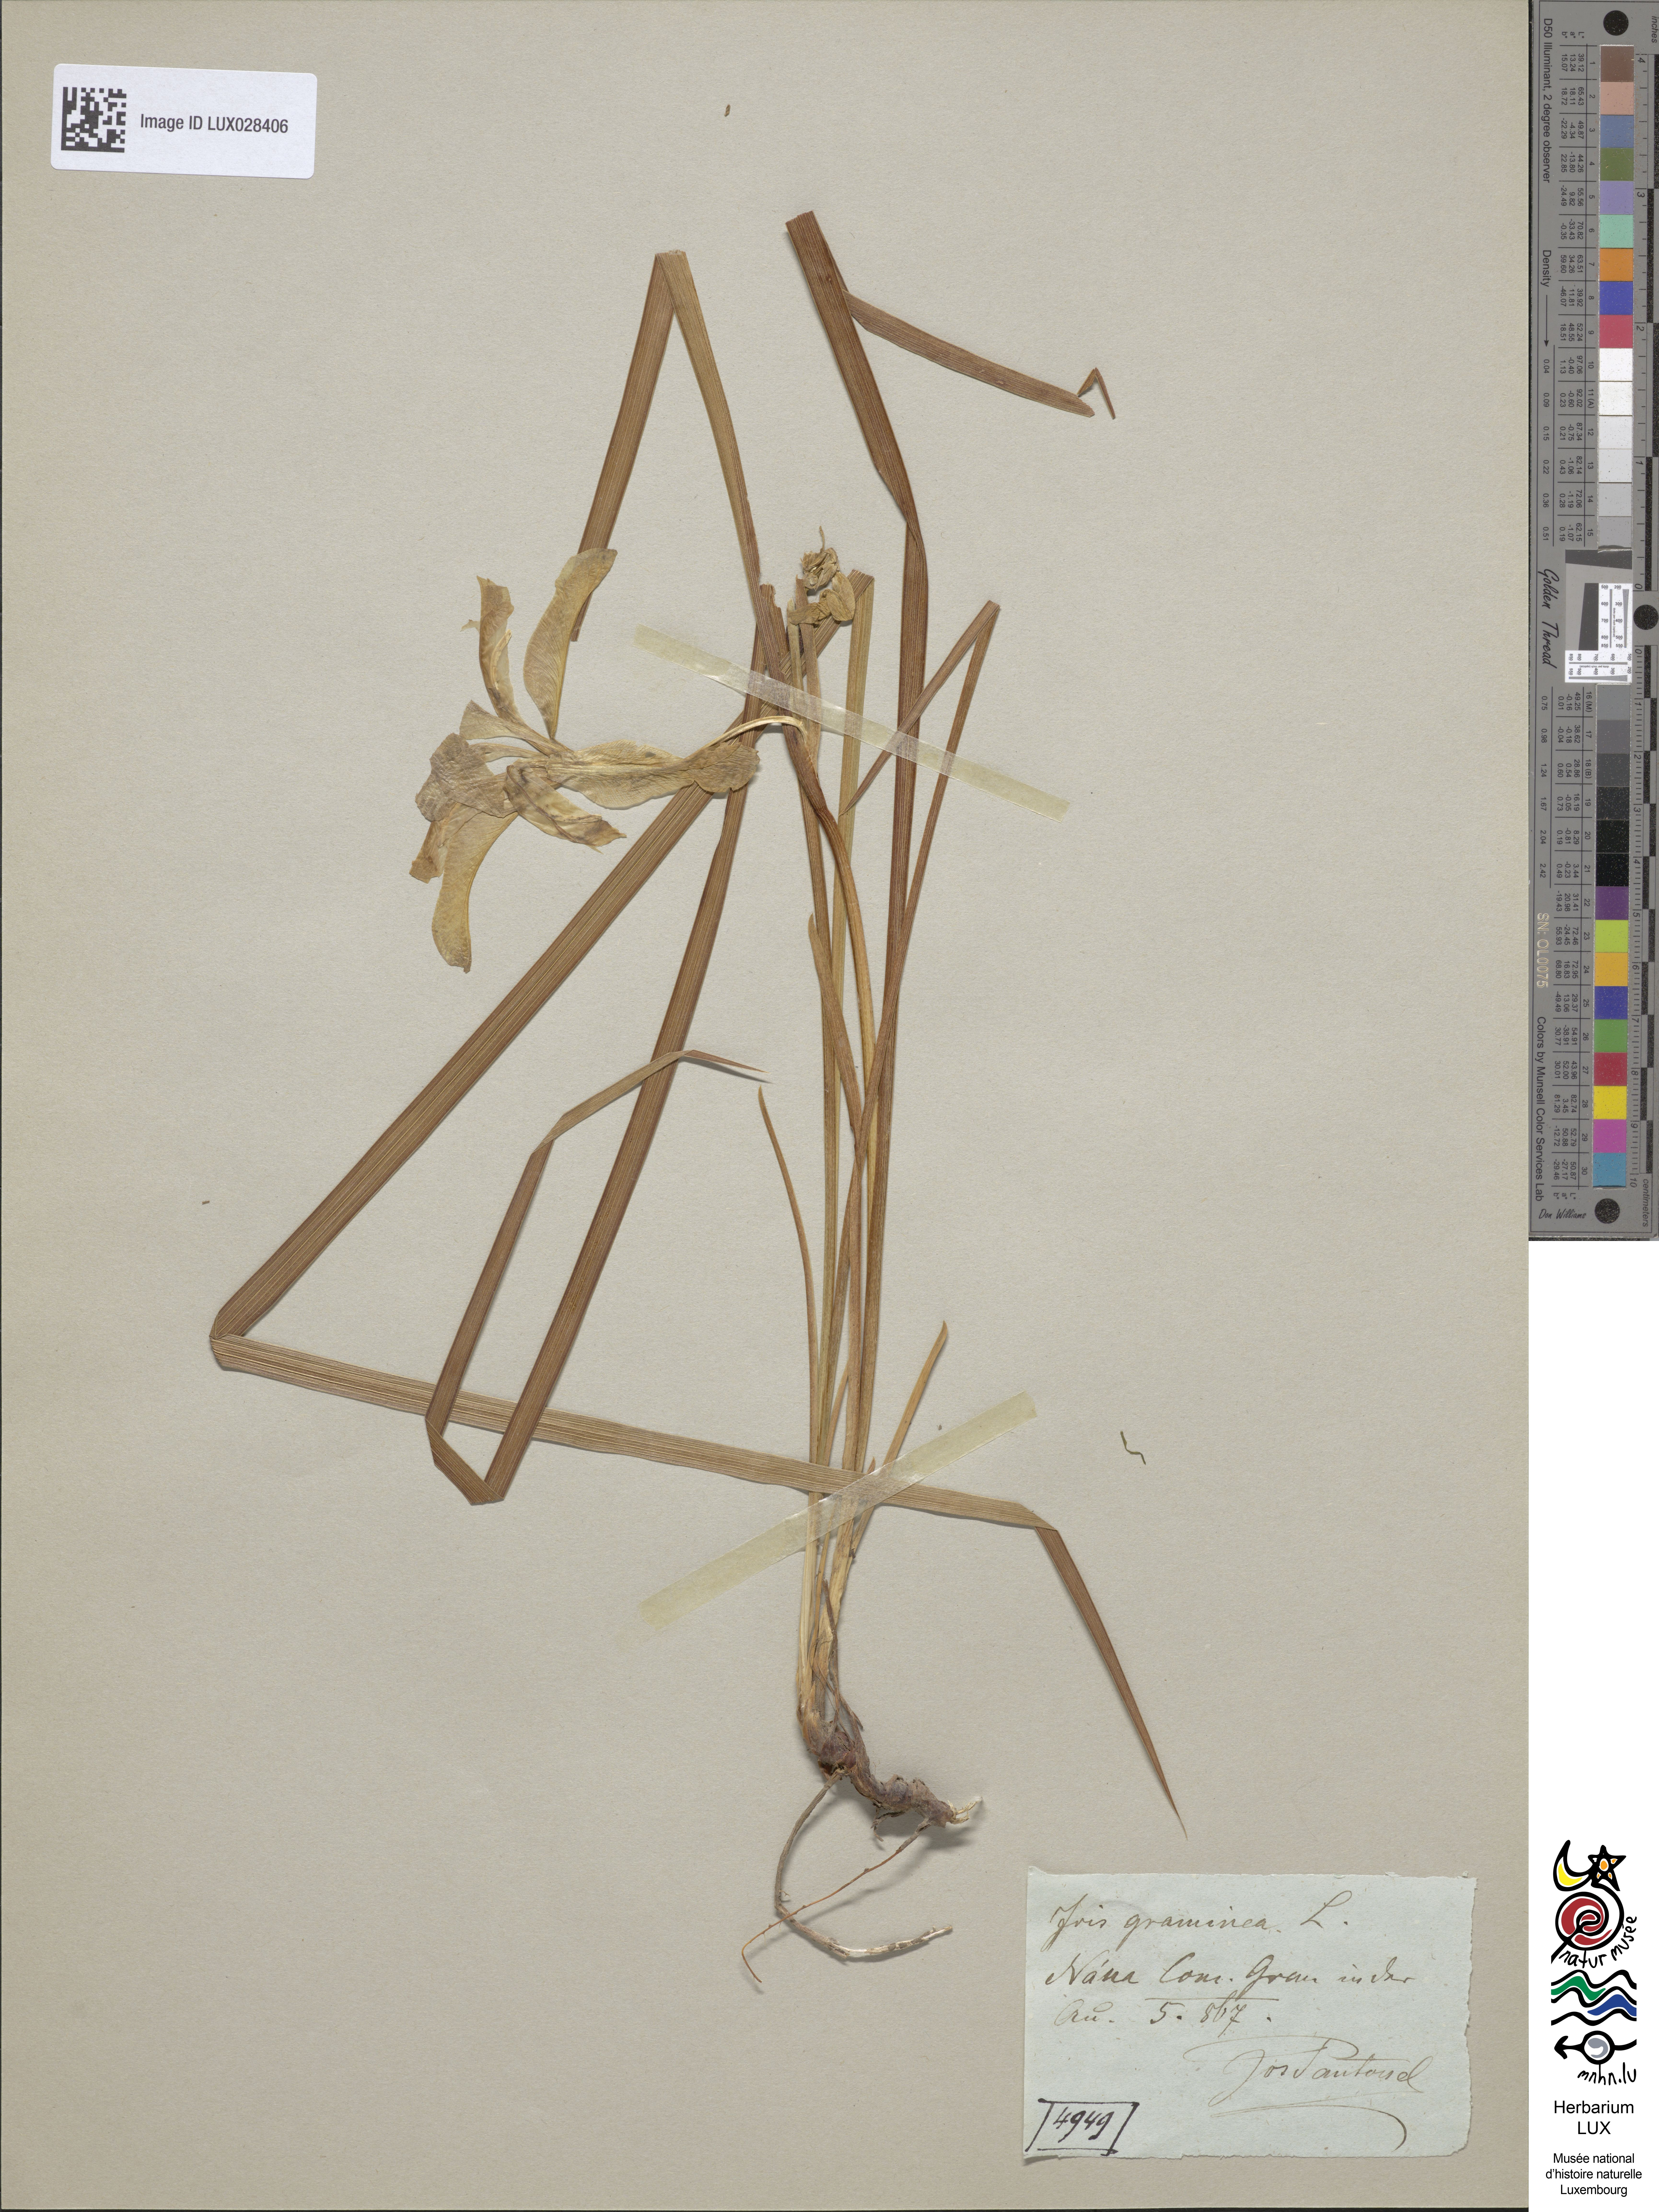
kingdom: Animalia
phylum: Arthropoda
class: Insecta
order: Mantodea
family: Eremiaphilidae
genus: Iris
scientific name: Iris
